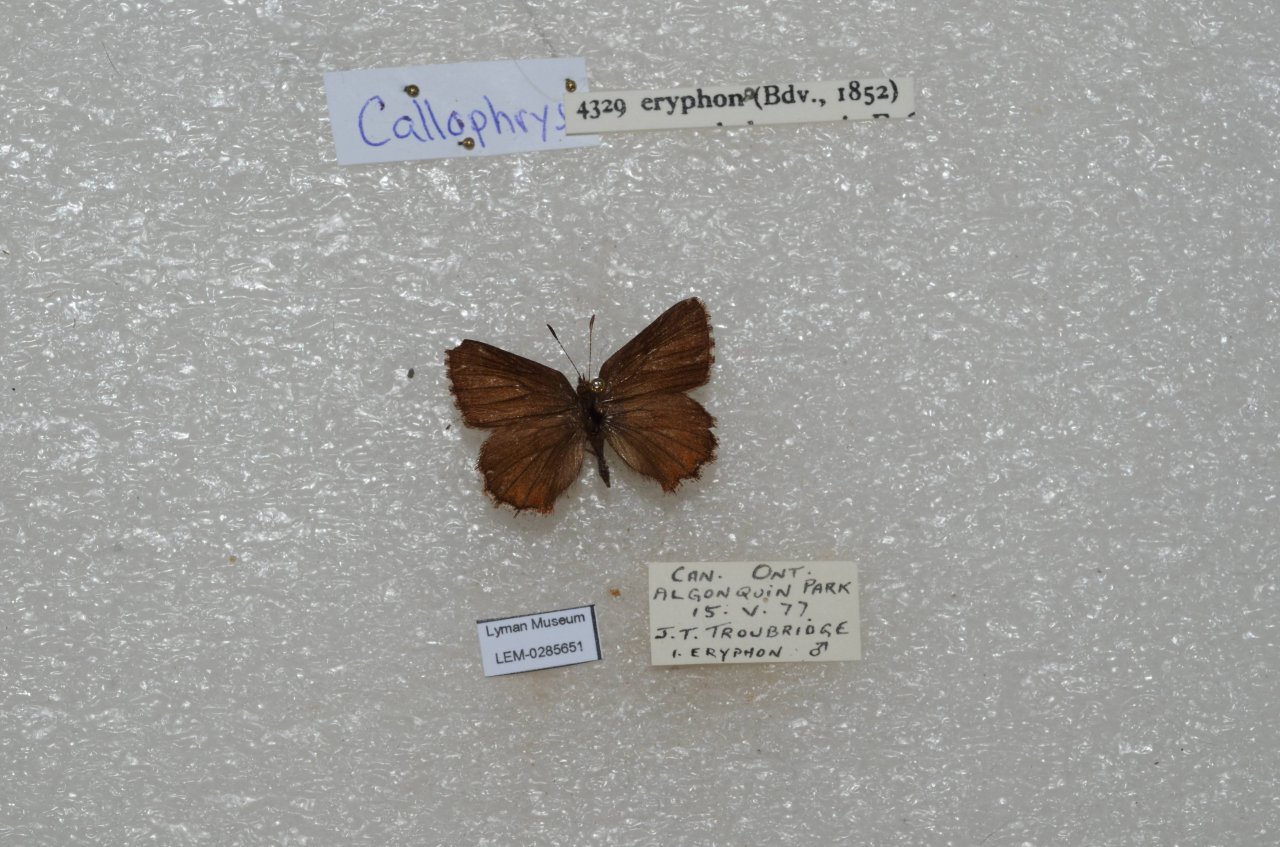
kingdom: Animalia
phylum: Arthropoda
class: Insecta
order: Lepidoptera
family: Lycaenidae
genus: Incisalia
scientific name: Incisalia eryphon
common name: Western Pine Elfin
